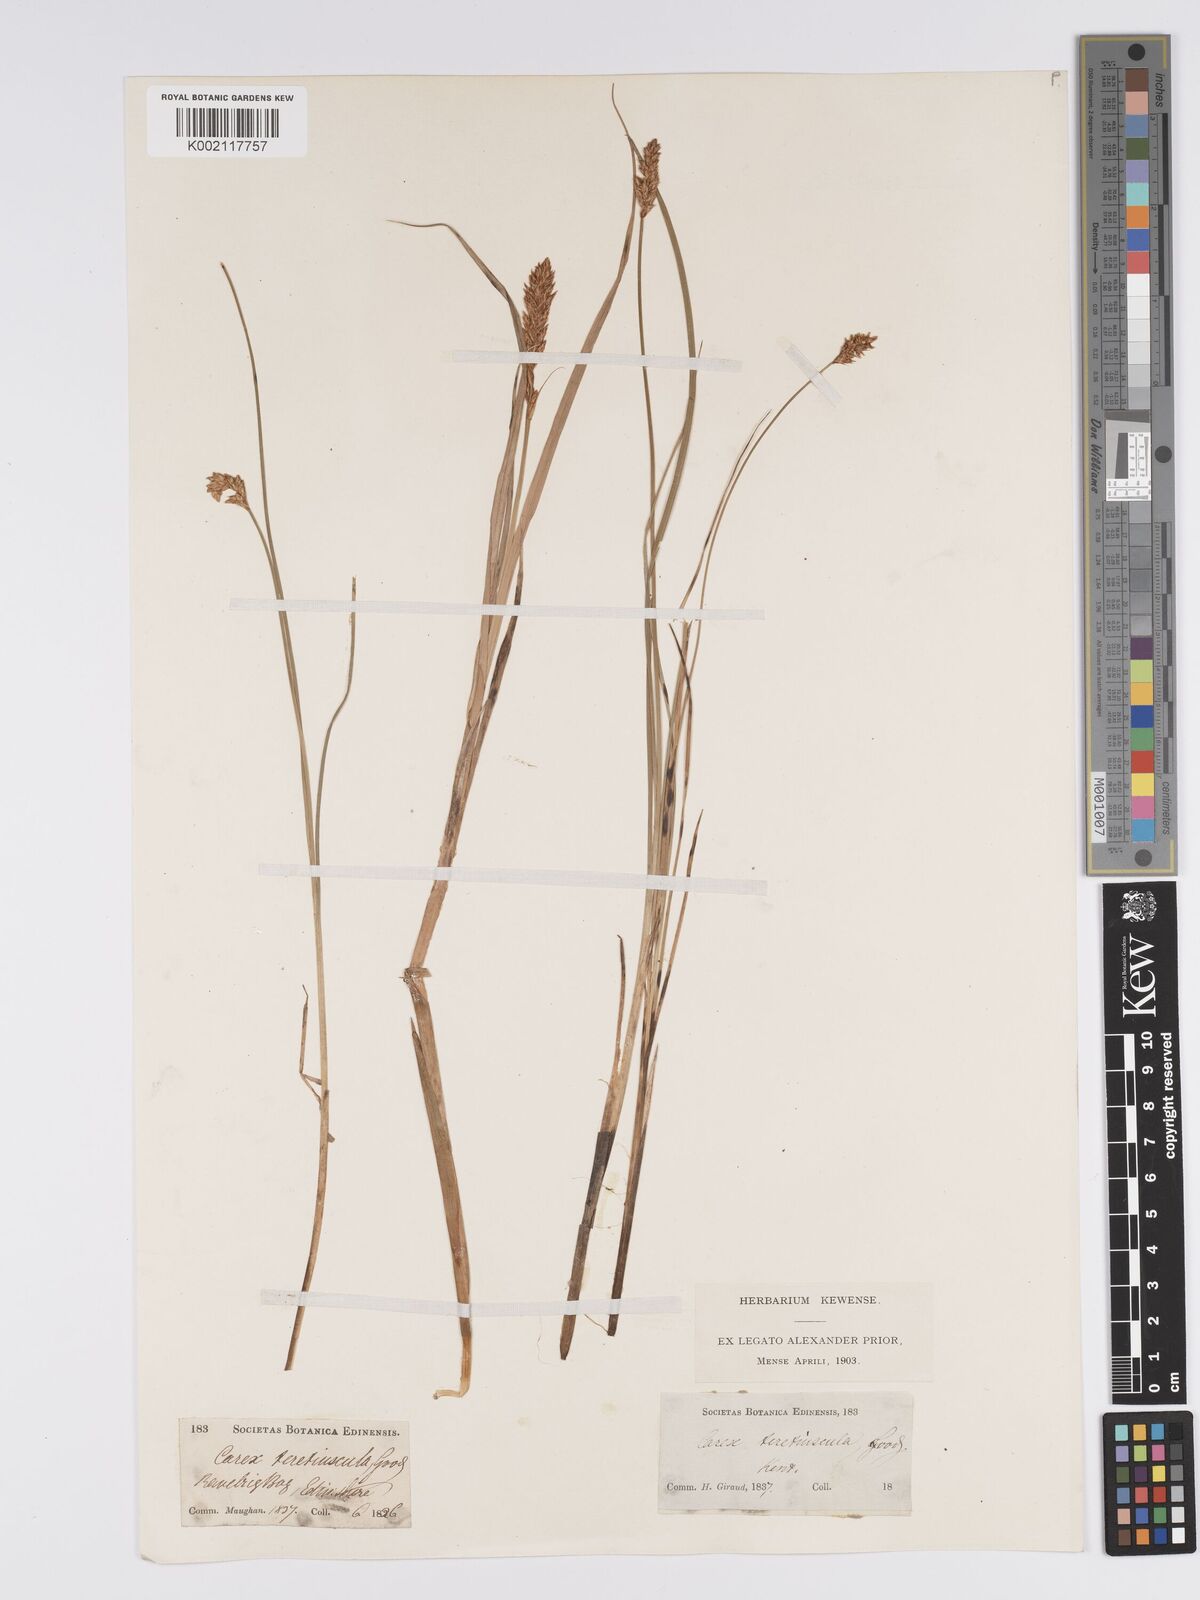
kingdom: Plantae
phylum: Tracheophyta
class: Liliopsida
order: Poales
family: Cyperaceae
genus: Carex
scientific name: Carex diandra
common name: Lesser tussock-sedge
